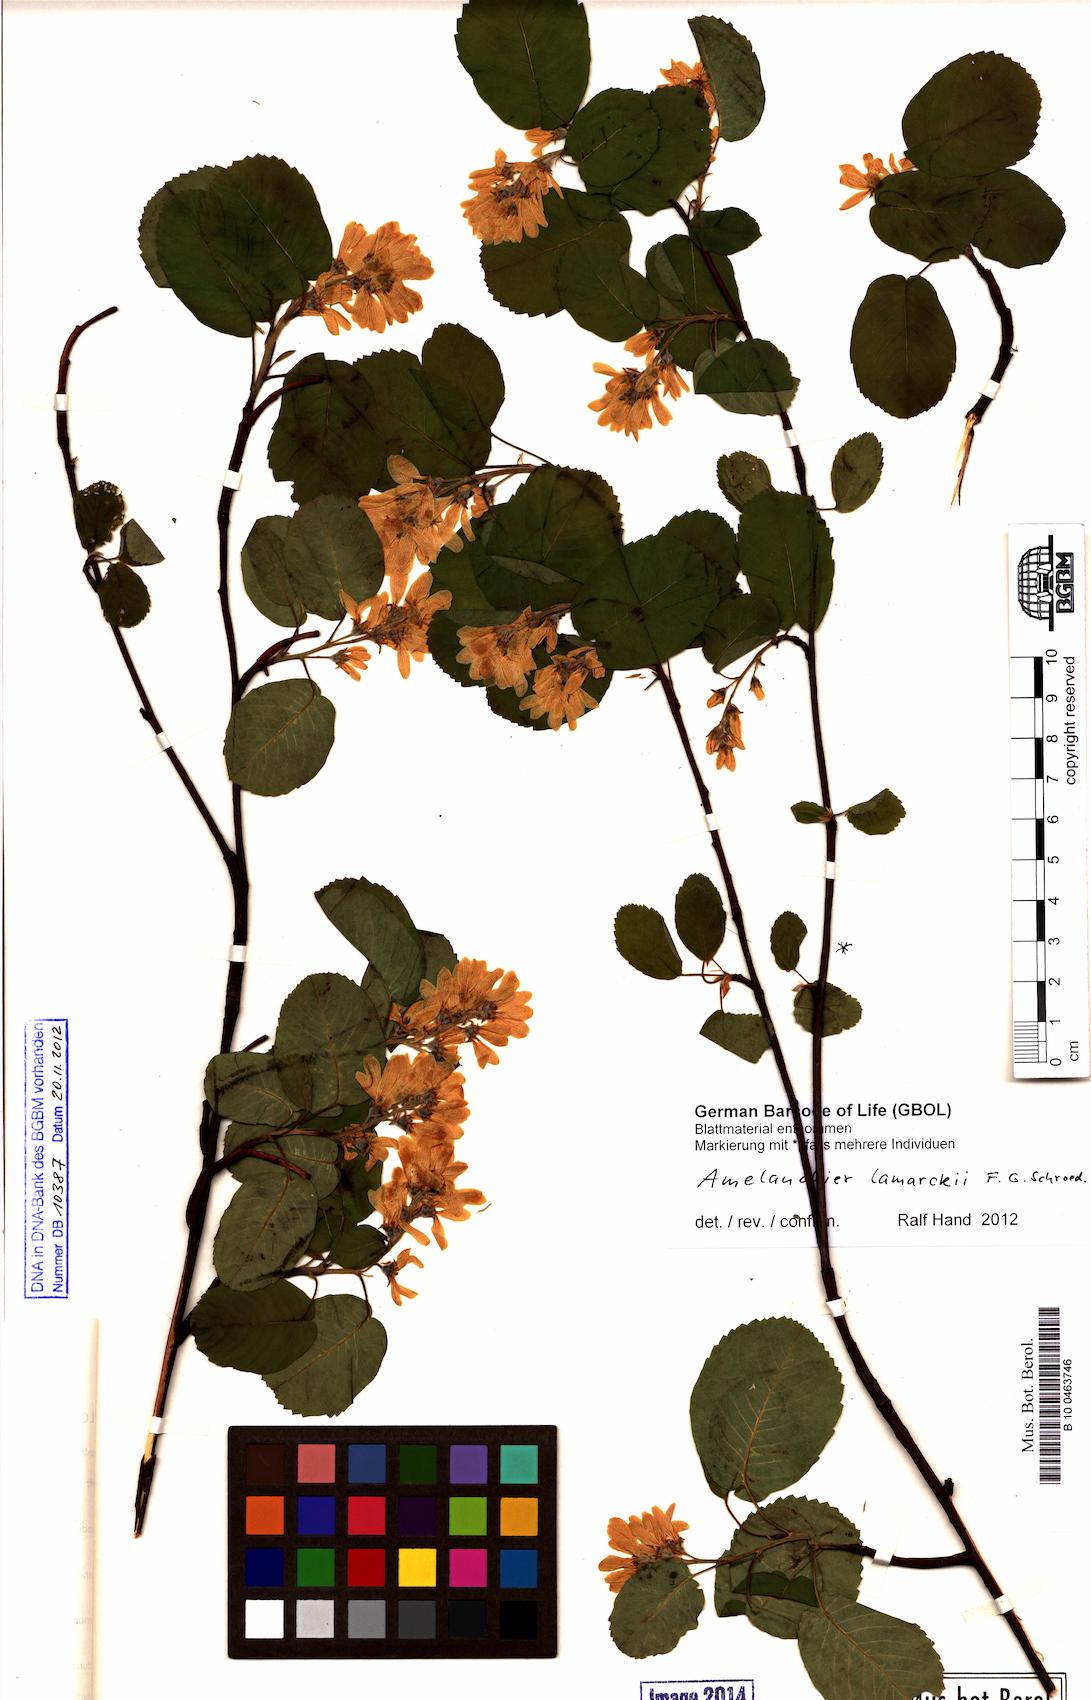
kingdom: Plantae
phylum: Tracheophyta
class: Magnoliopsida
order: Rosales
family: Rosaceae
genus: Amelanchier
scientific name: Amelanchier lamarckii
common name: Juneberry
